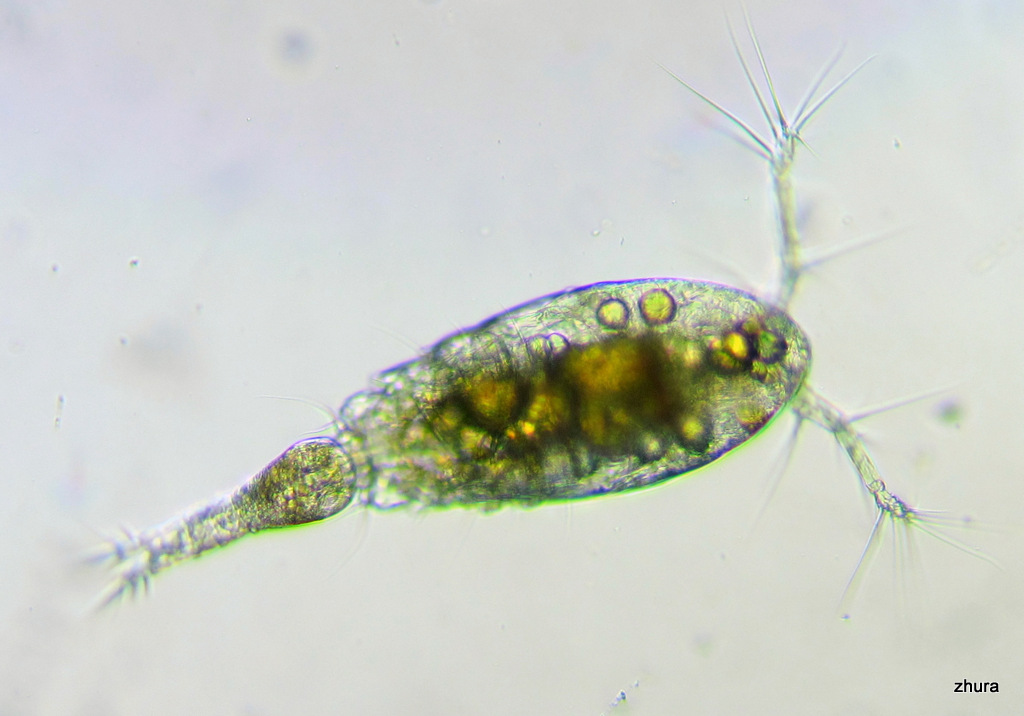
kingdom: Animalia
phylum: Arthropoda
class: Copepoda
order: Cyclopoida
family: Oncaeidae
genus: Oncaea
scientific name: Oncaea
